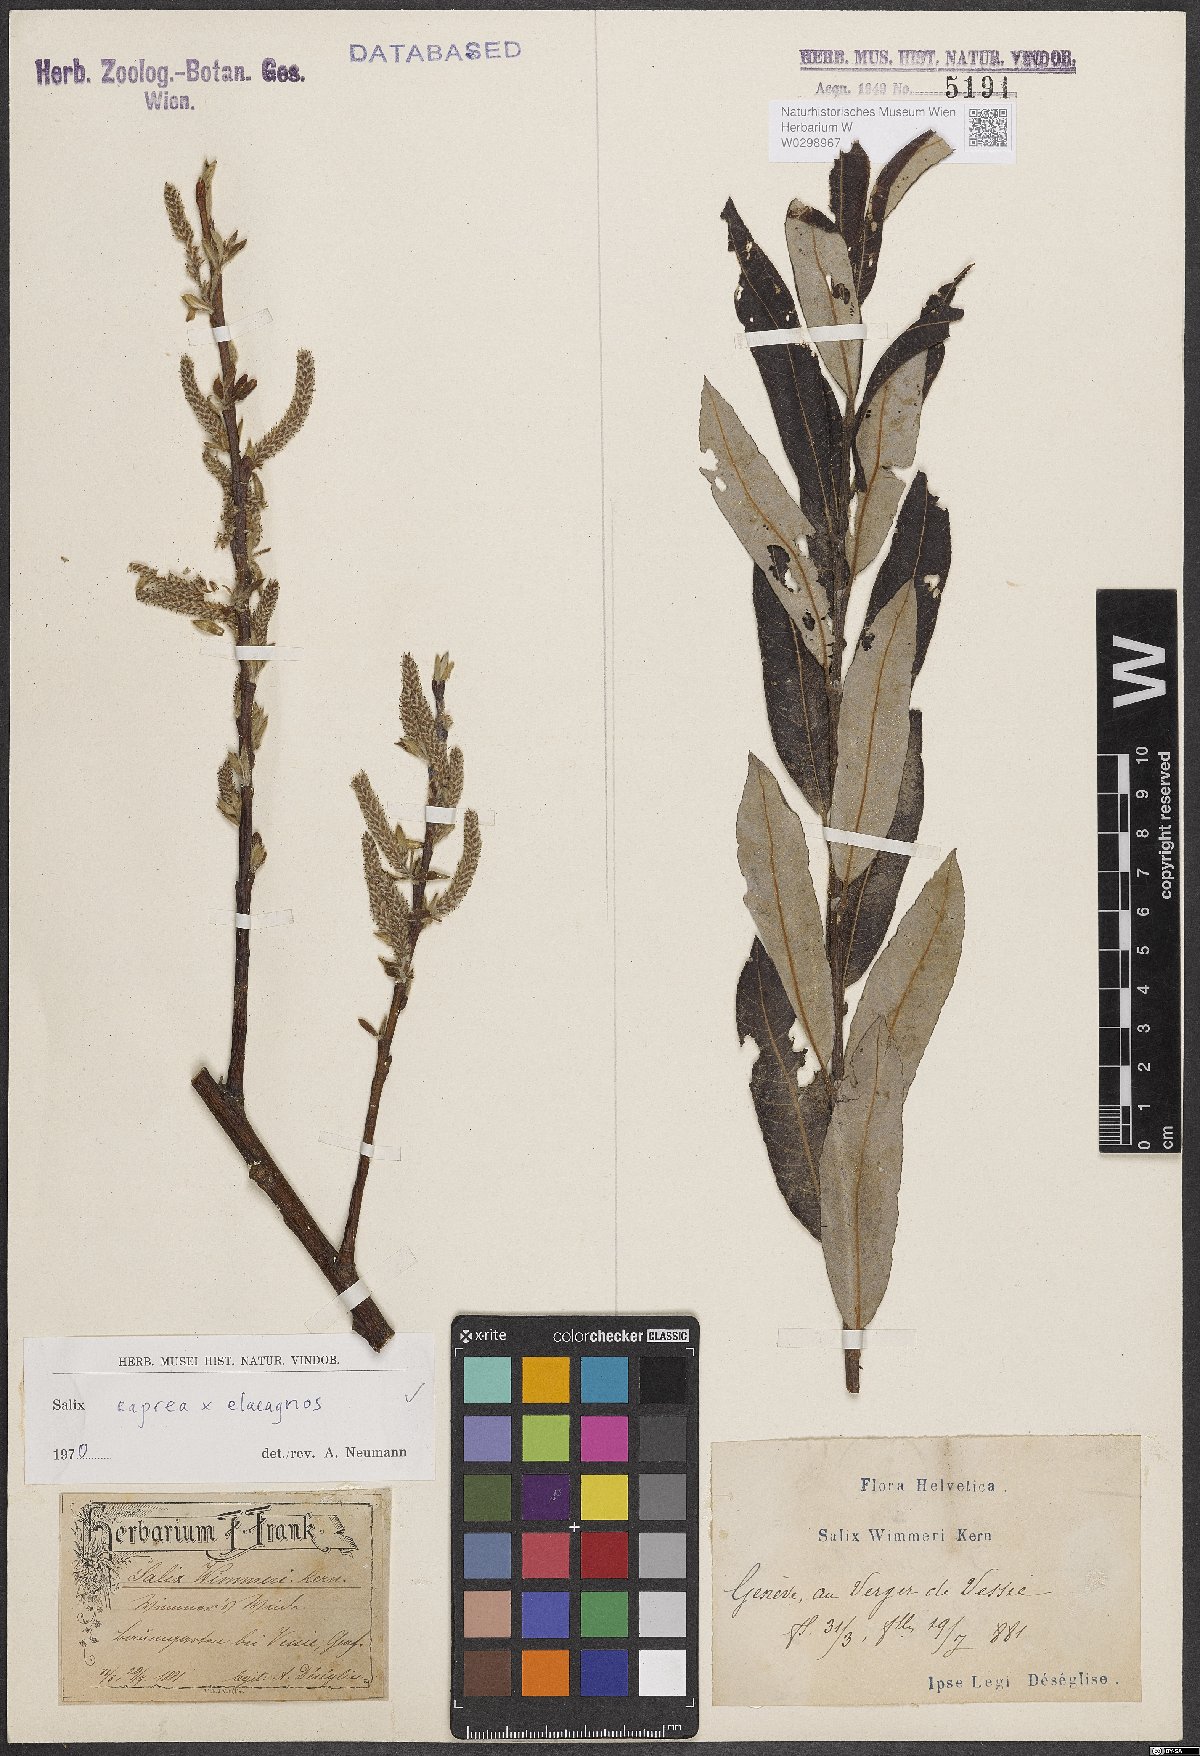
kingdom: Plantae
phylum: Tracheophyta
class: Magnoliopsida
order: Malpighiales
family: Salicaceae
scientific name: Salicaceae
